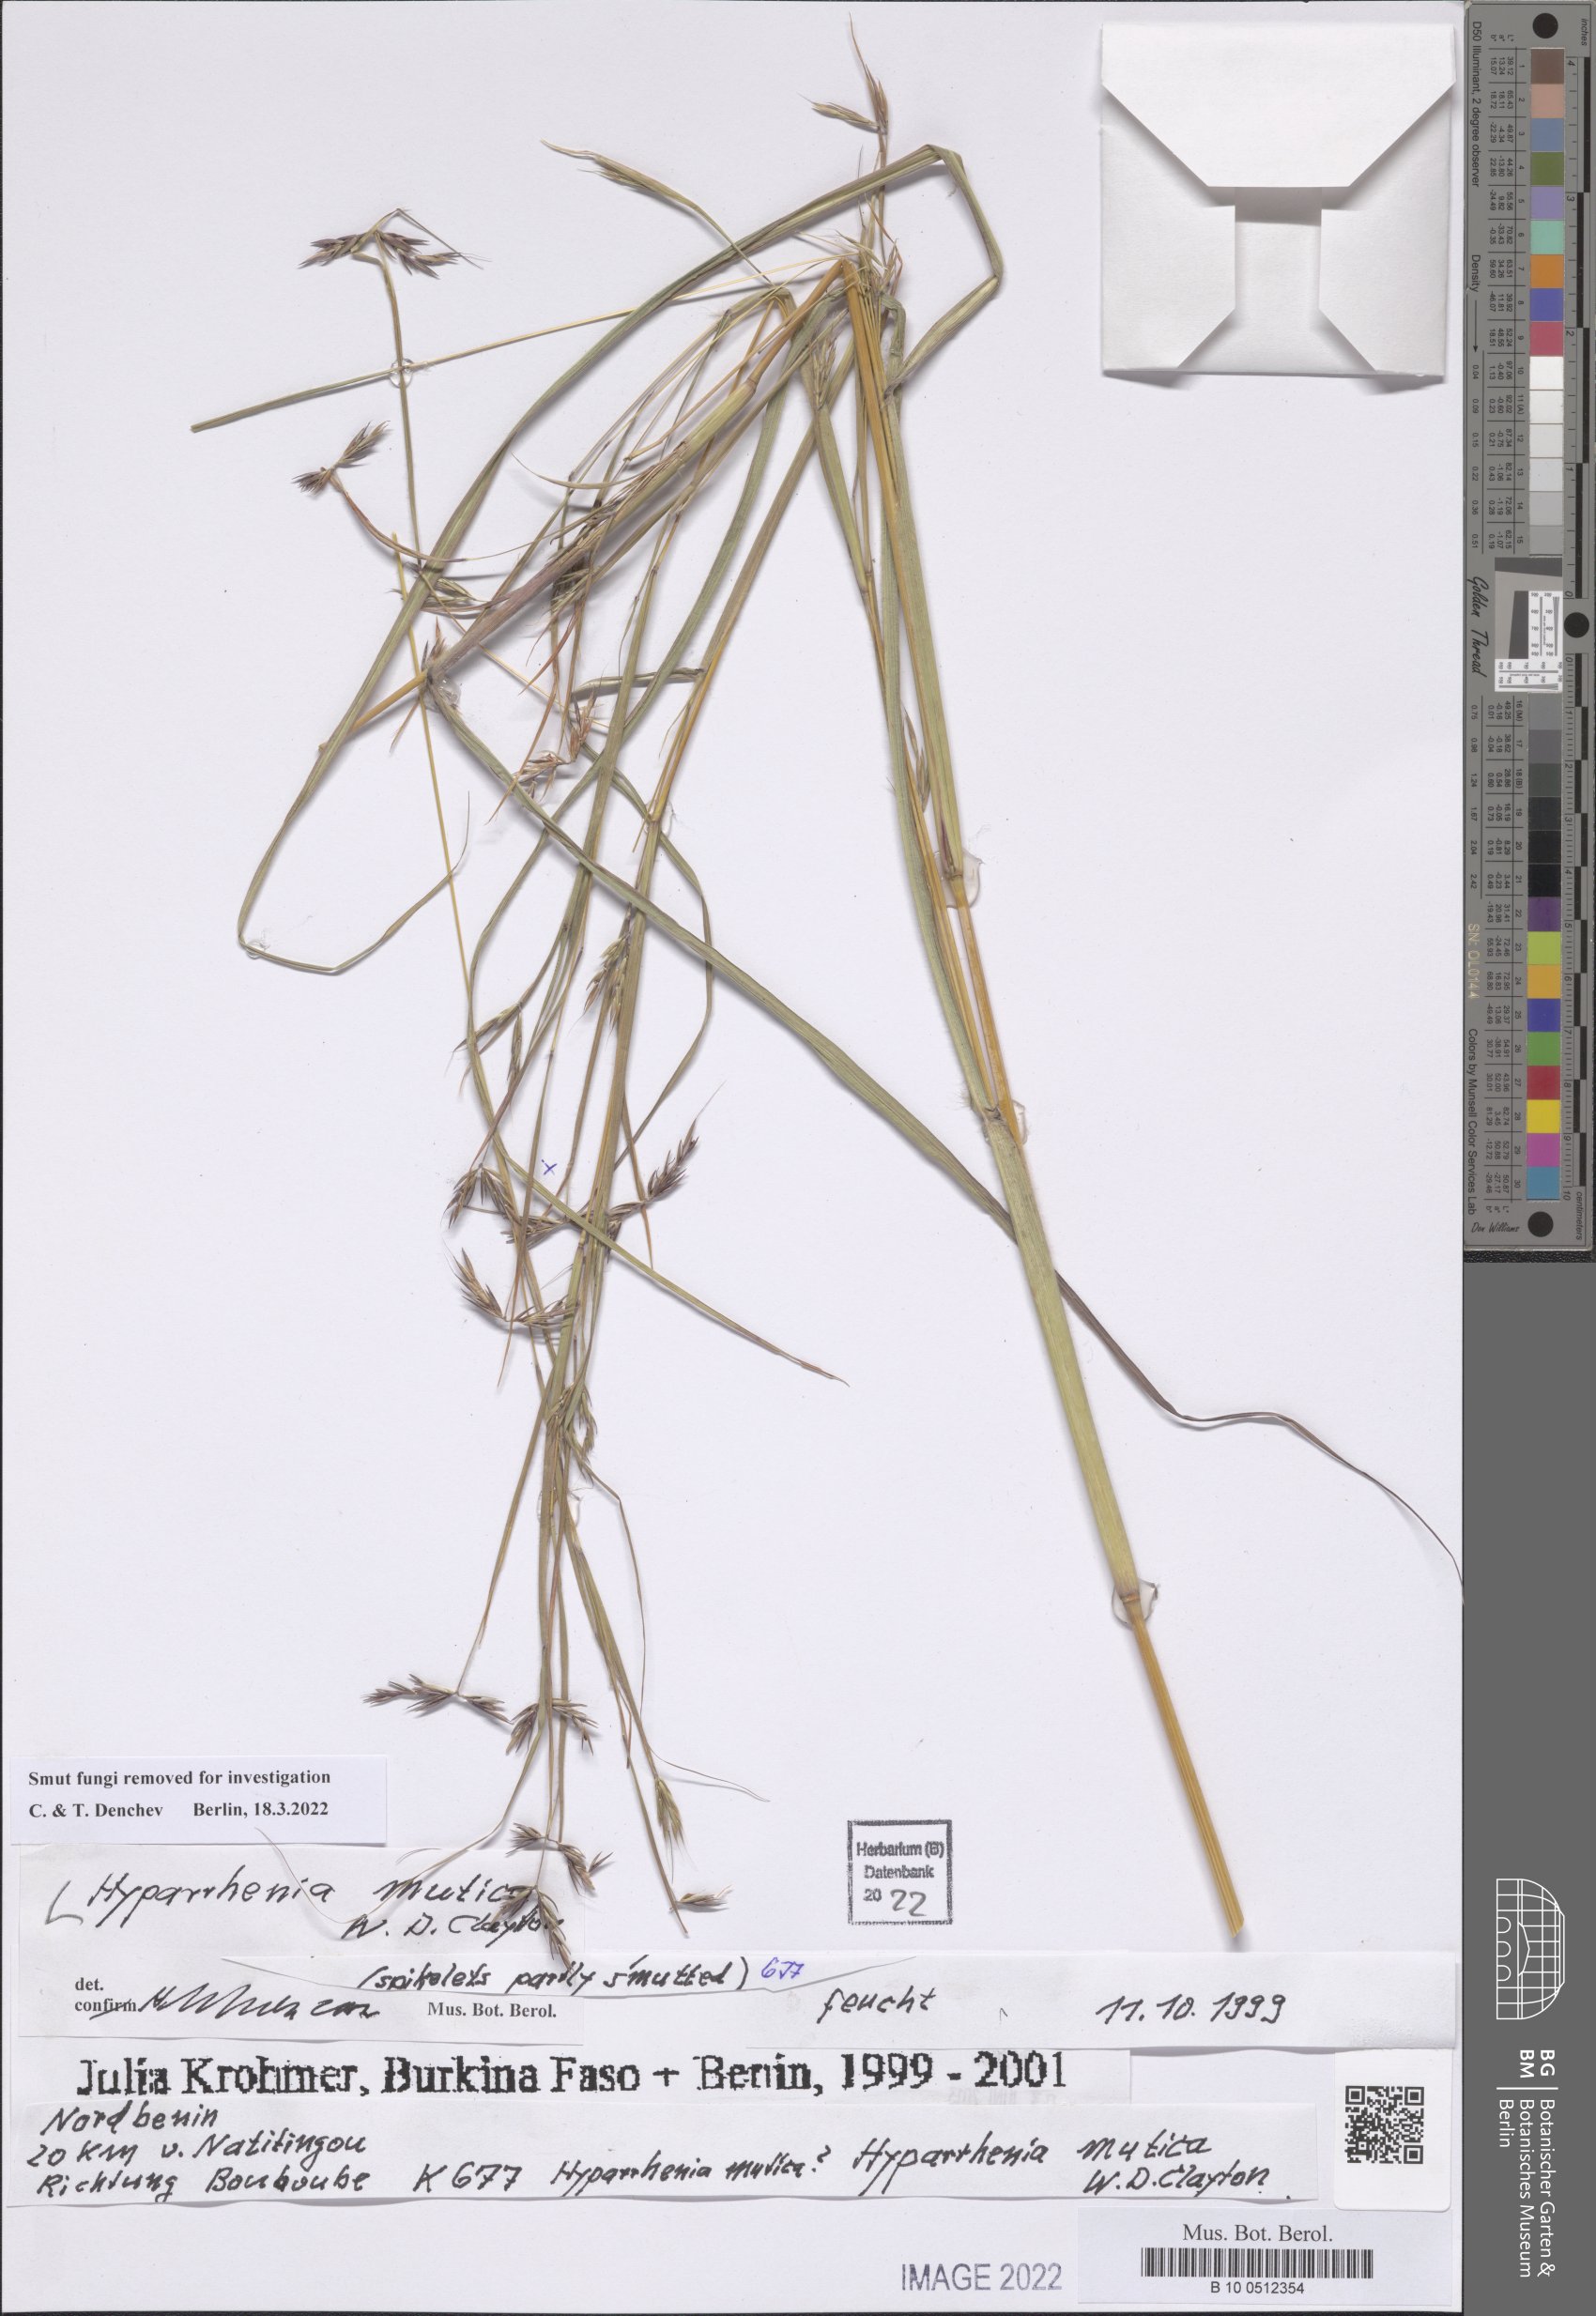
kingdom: Plantae
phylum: Tracheophyta
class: Liliopsida
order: Poales
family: Poaceae
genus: Hyparrhenia
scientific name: Hyparrhenia diplandra
